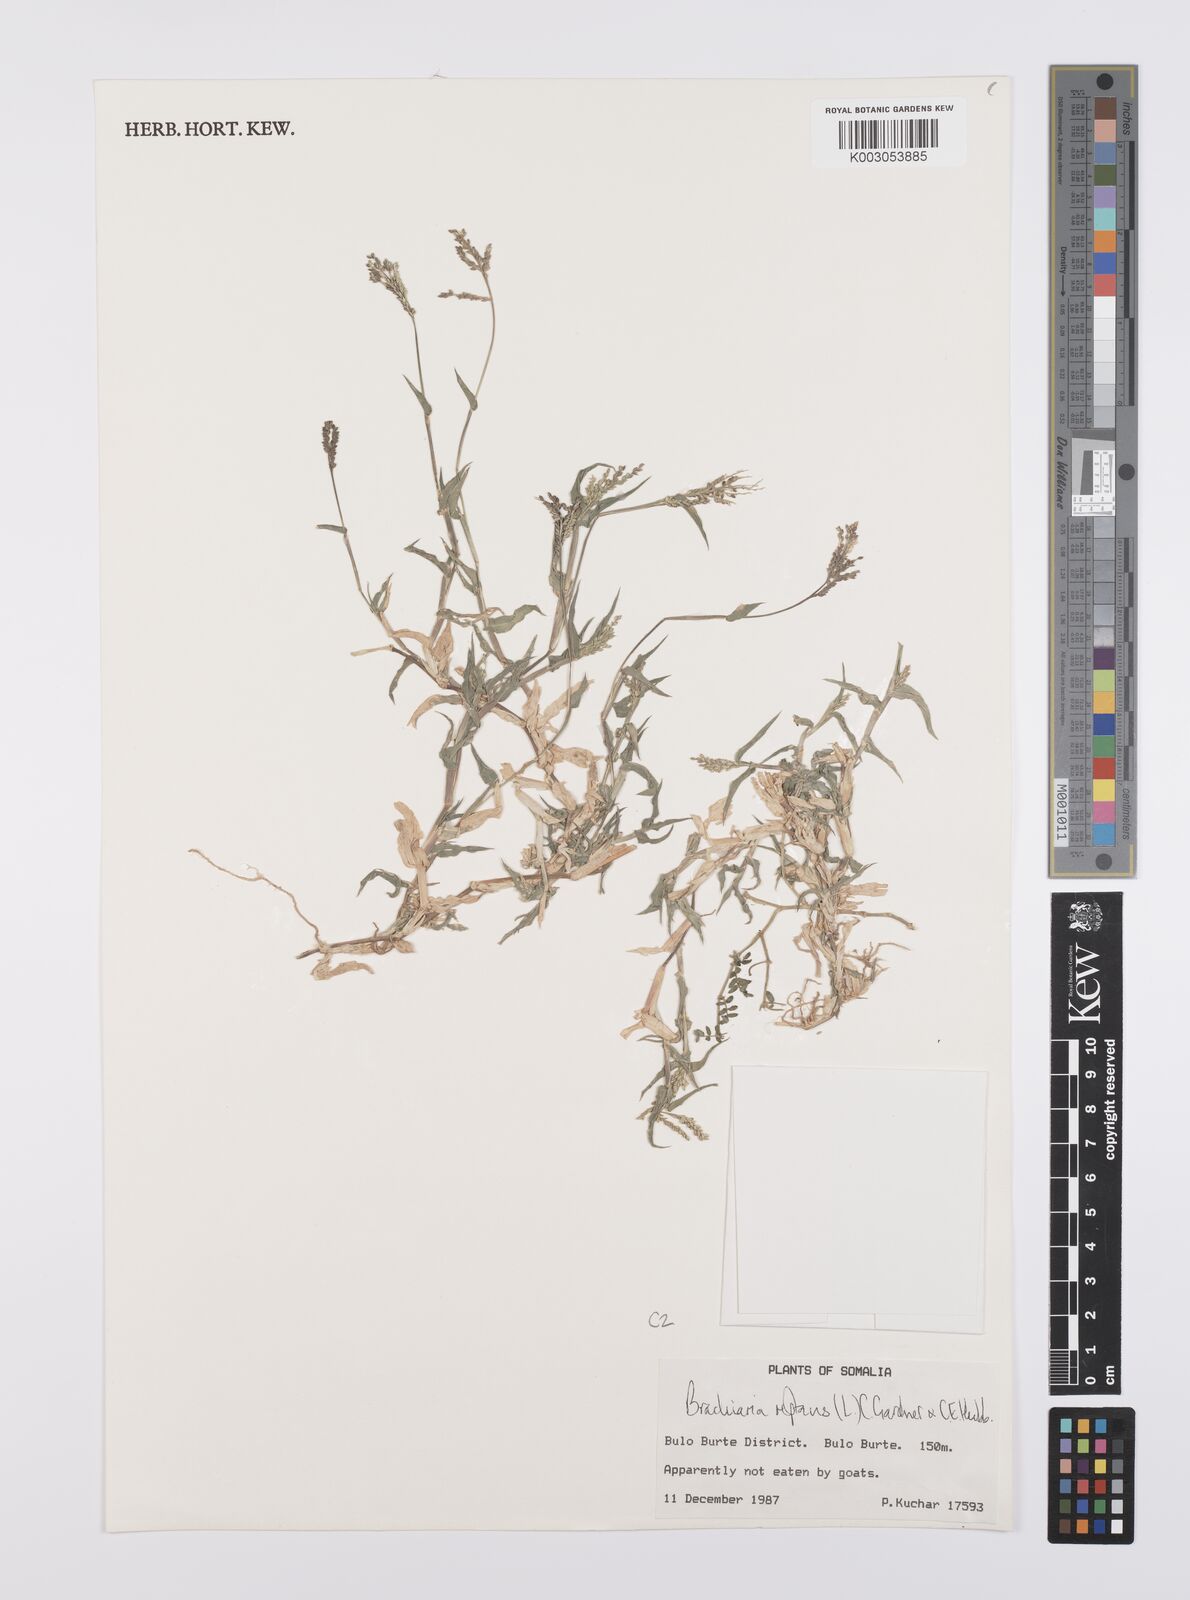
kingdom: Plantae
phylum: Tracheophyta
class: Liliopsida
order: Poales
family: Poaceae
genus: Urochloa
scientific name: Urochloa reptans
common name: Sprawling signalgrass
